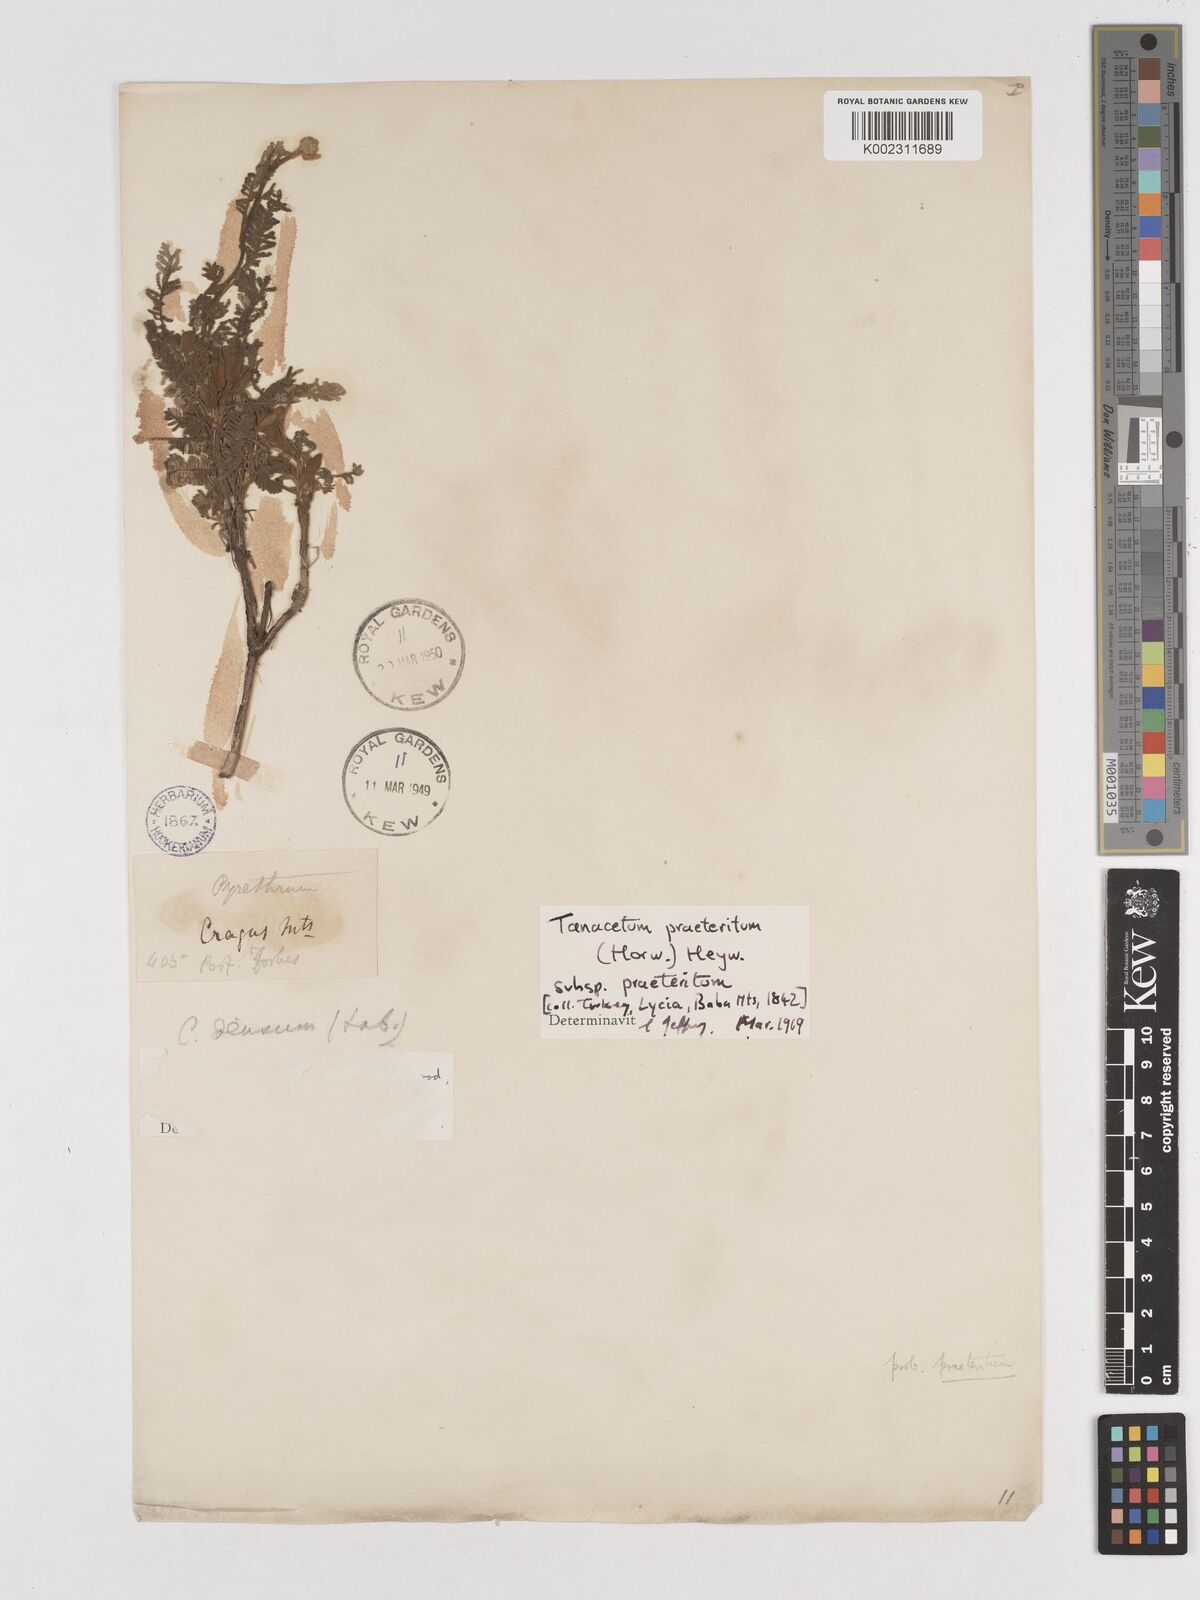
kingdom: Plantae
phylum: Tracheophyta
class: Magnoliopsida
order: Asterales
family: Asteraceae
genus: Tanacetum
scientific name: Tanacetum praeteritum
